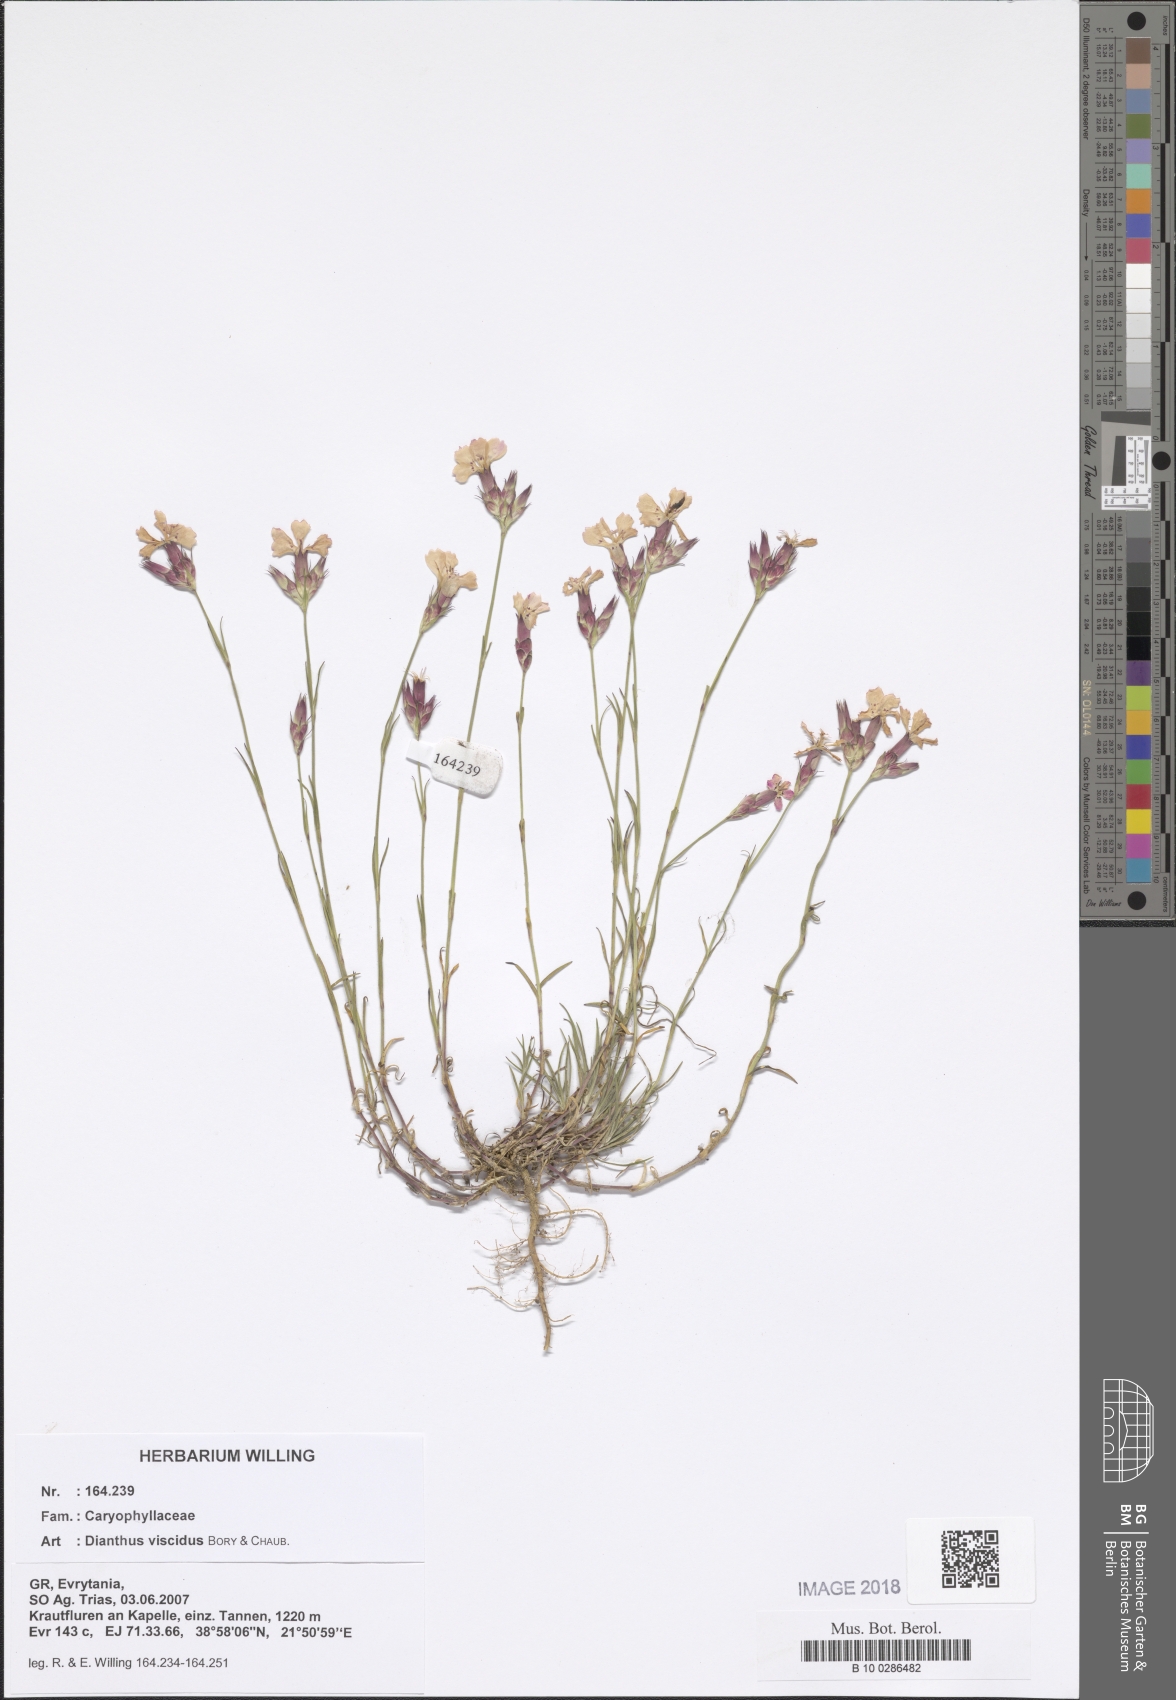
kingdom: Plantae
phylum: Tracheophyta
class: Magnoliopsida
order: Caryophyllales
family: Caryophyllaceae
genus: Dianthus
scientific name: Dianthus viscidus
